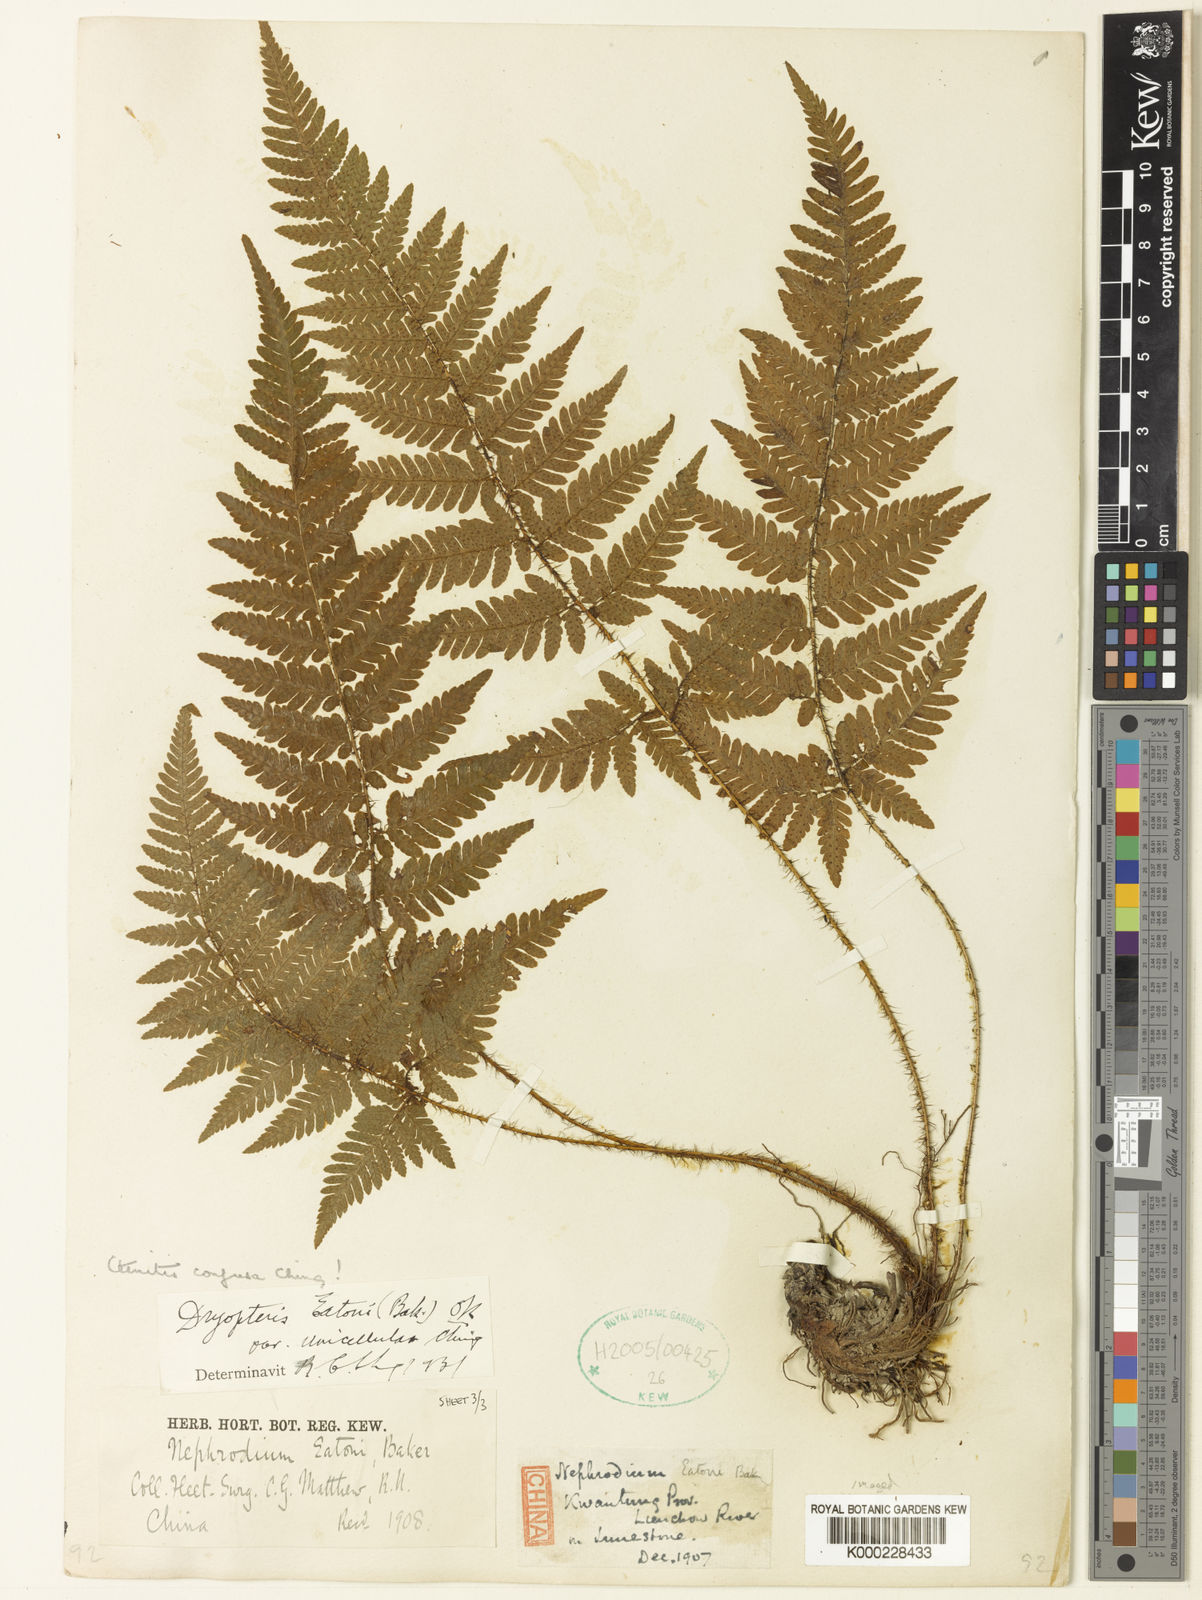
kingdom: Plantae
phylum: Tracheophyta
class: Polypodiopsida
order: Polypodiales
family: Dryopteridaceae
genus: Ctenitis
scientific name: Ctenitis eatonii
